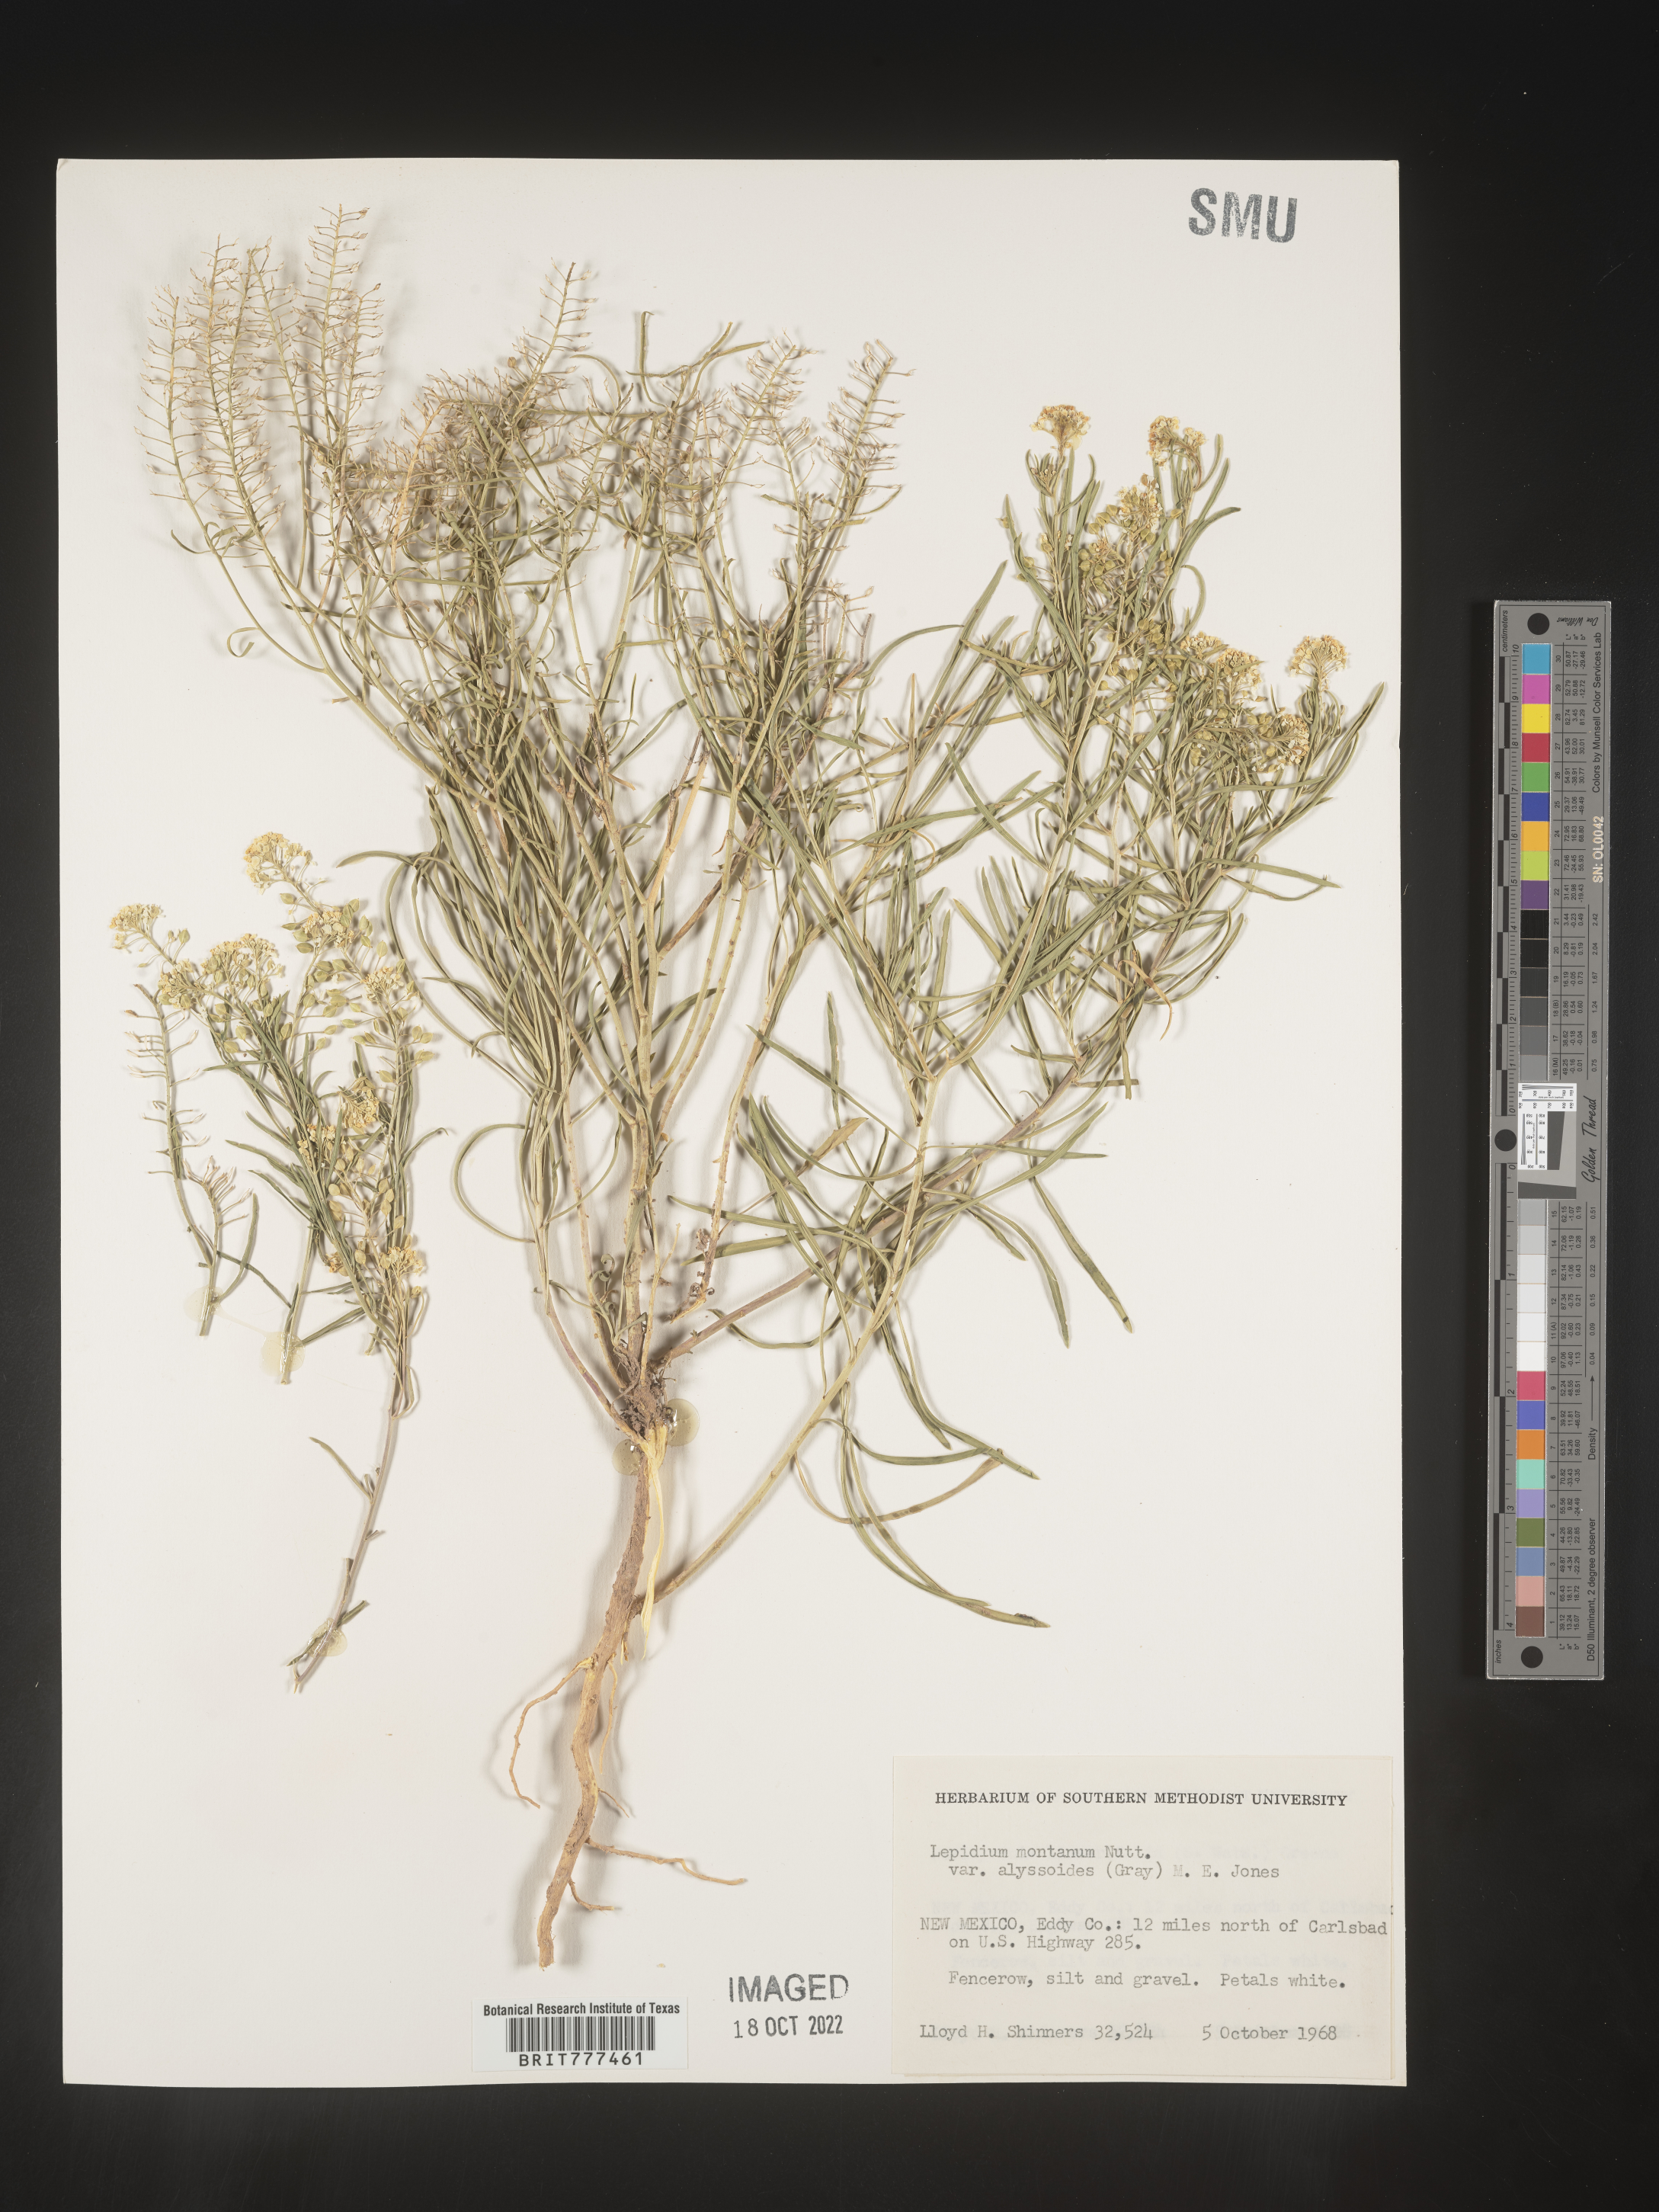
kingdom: Plantae
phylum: Tracheophyta
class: Magnoliopsida
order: Brassicales
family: Brassicaceae
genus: Lepidium
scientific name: Lepidium montanum
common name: Mountain pepperplant
